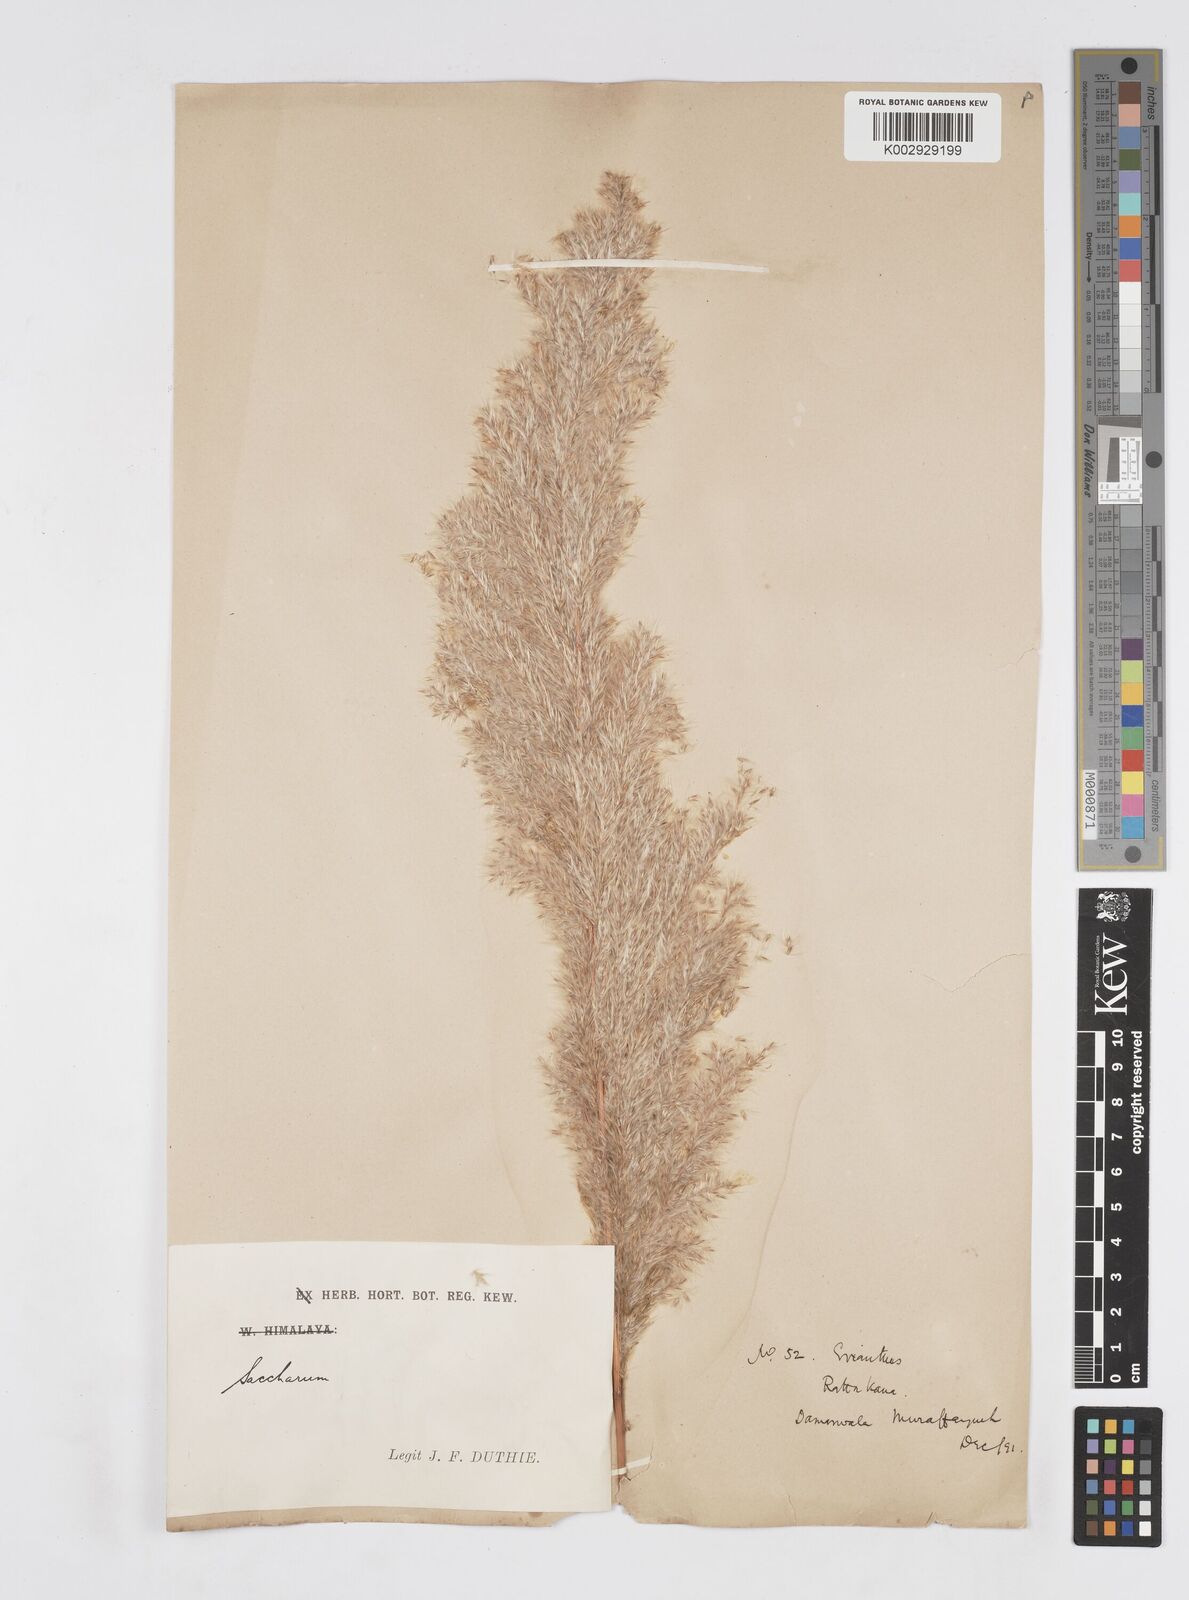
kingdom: Plantae
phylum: Tracheophyta
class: Liliopsida
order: Poales
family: Poaceae
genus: Tripidium
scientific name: Tripidium ravennae
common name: Ravenna grass
